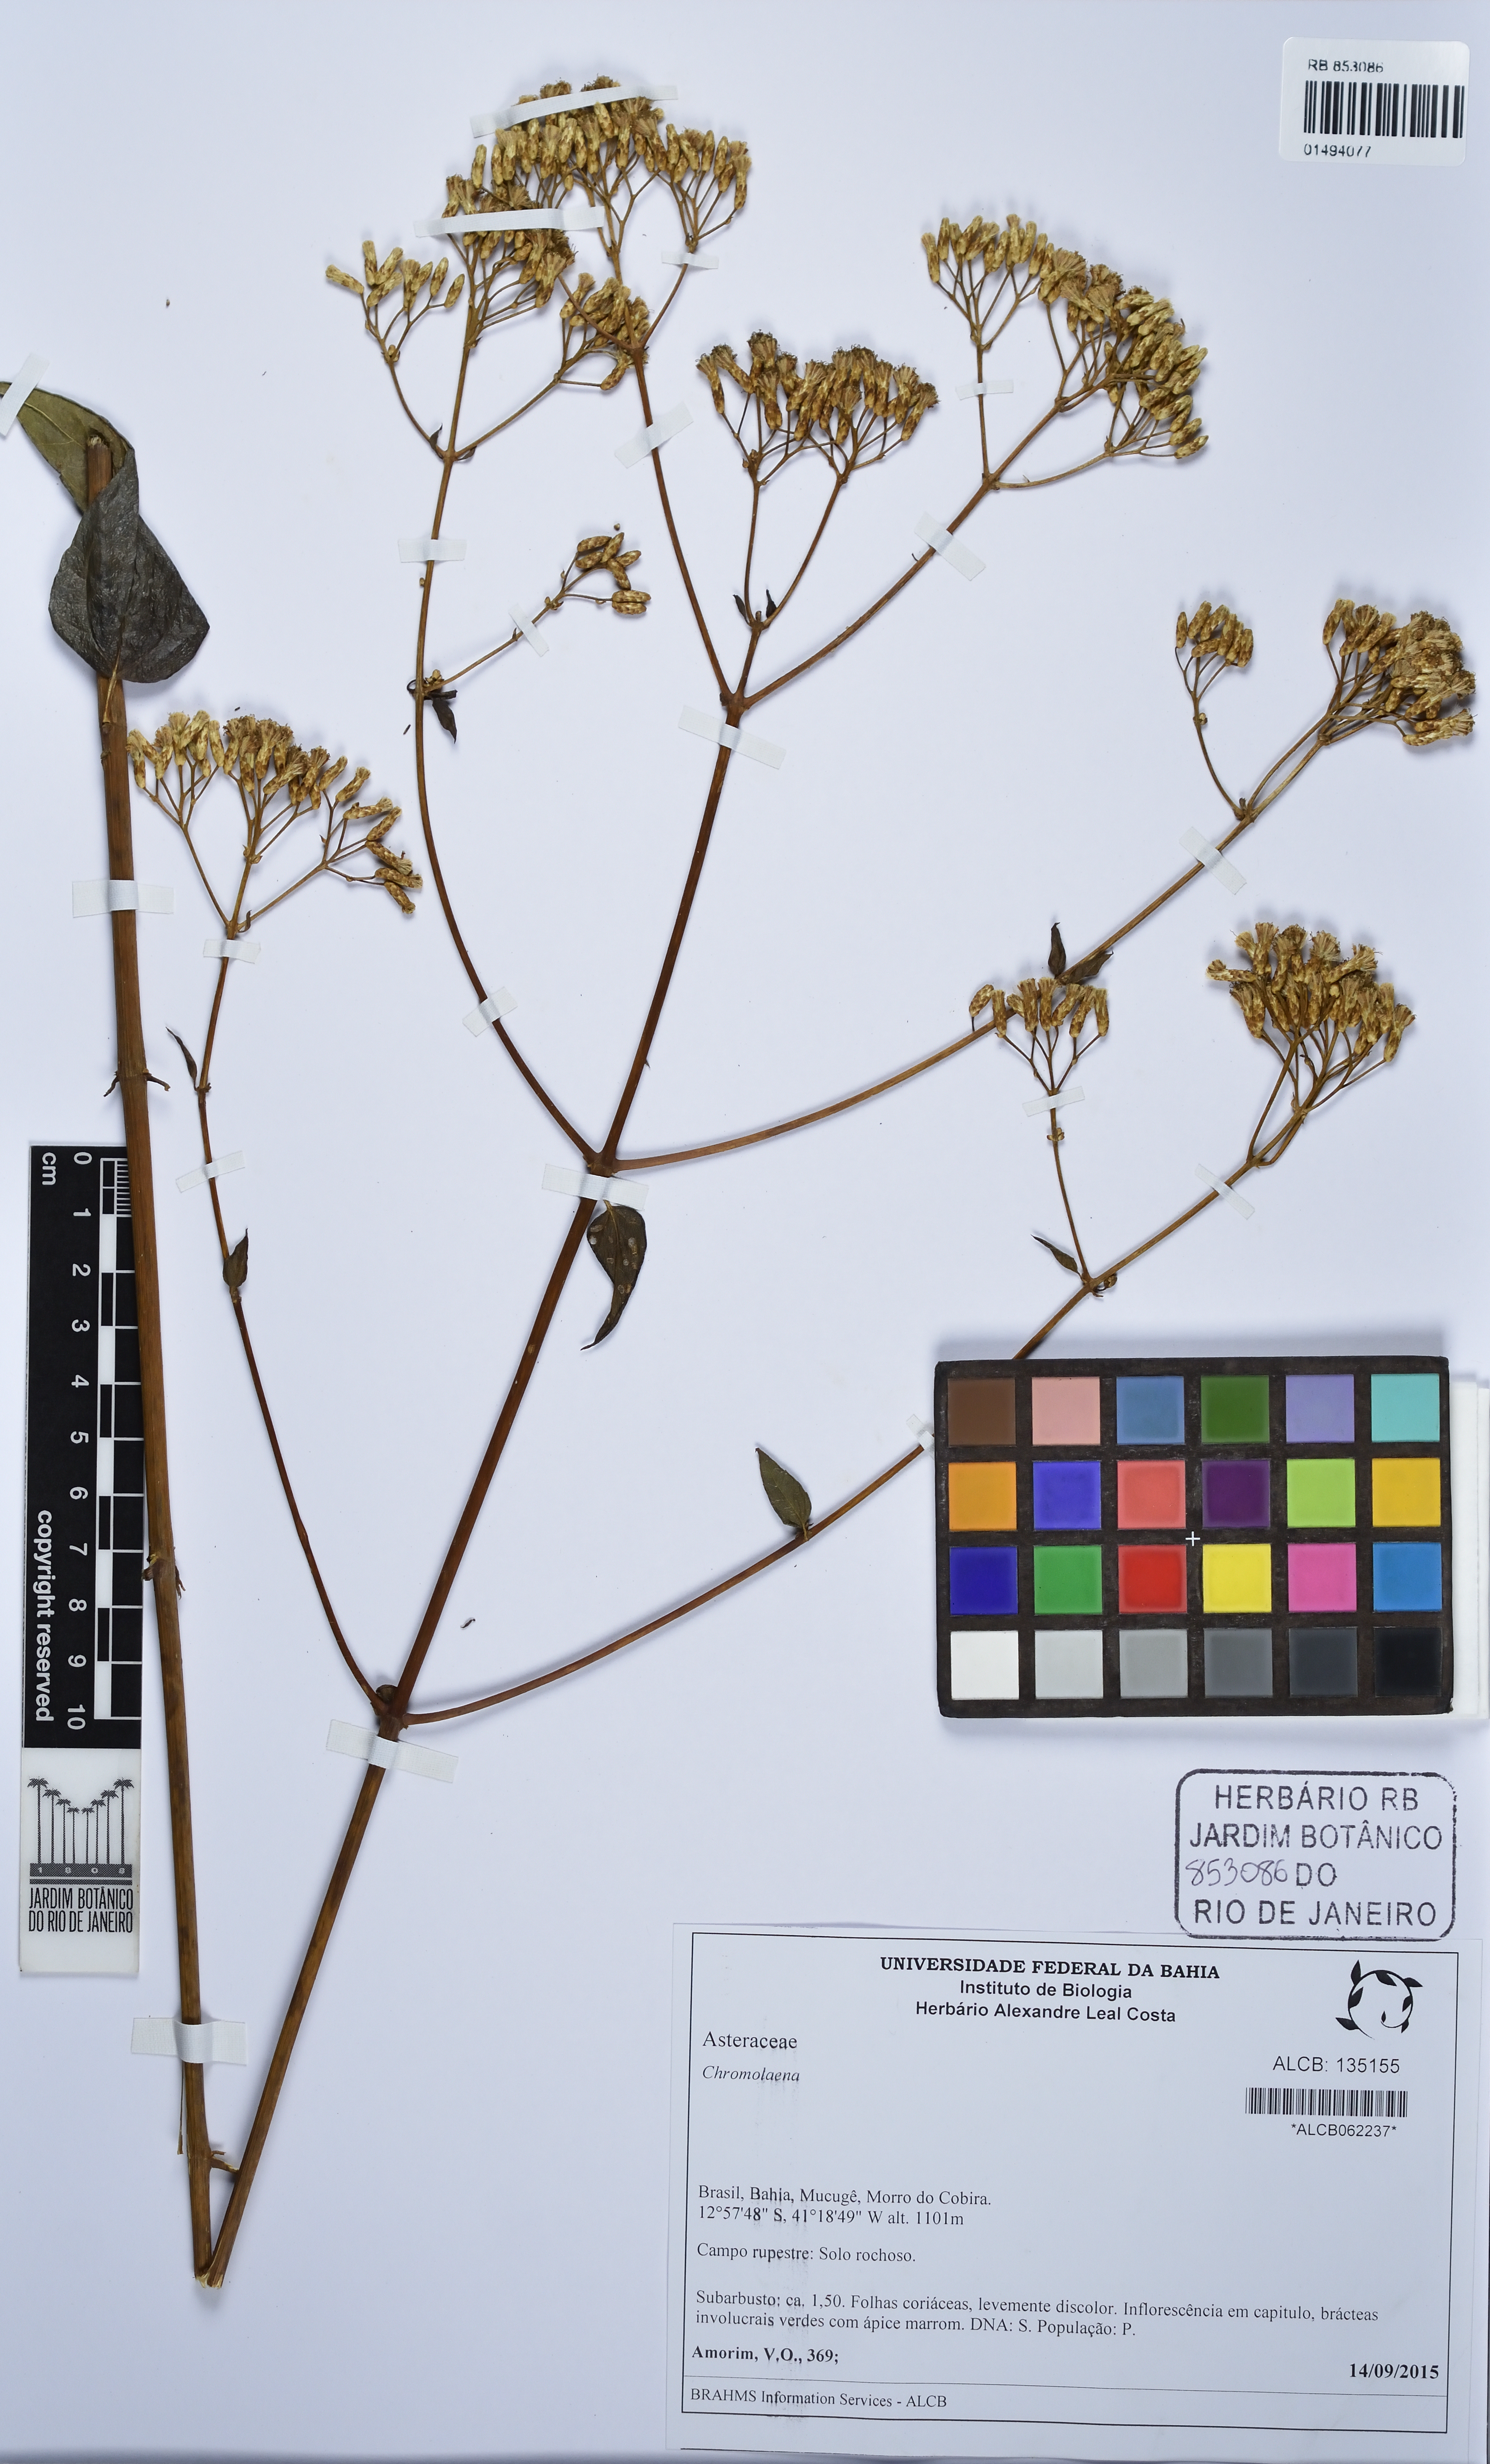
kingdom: Plantae
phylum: Tracheophyta
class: Magnoliopsida
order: Asterales
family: Asteraceae
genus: Chromolaena
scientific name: Chromolaena
